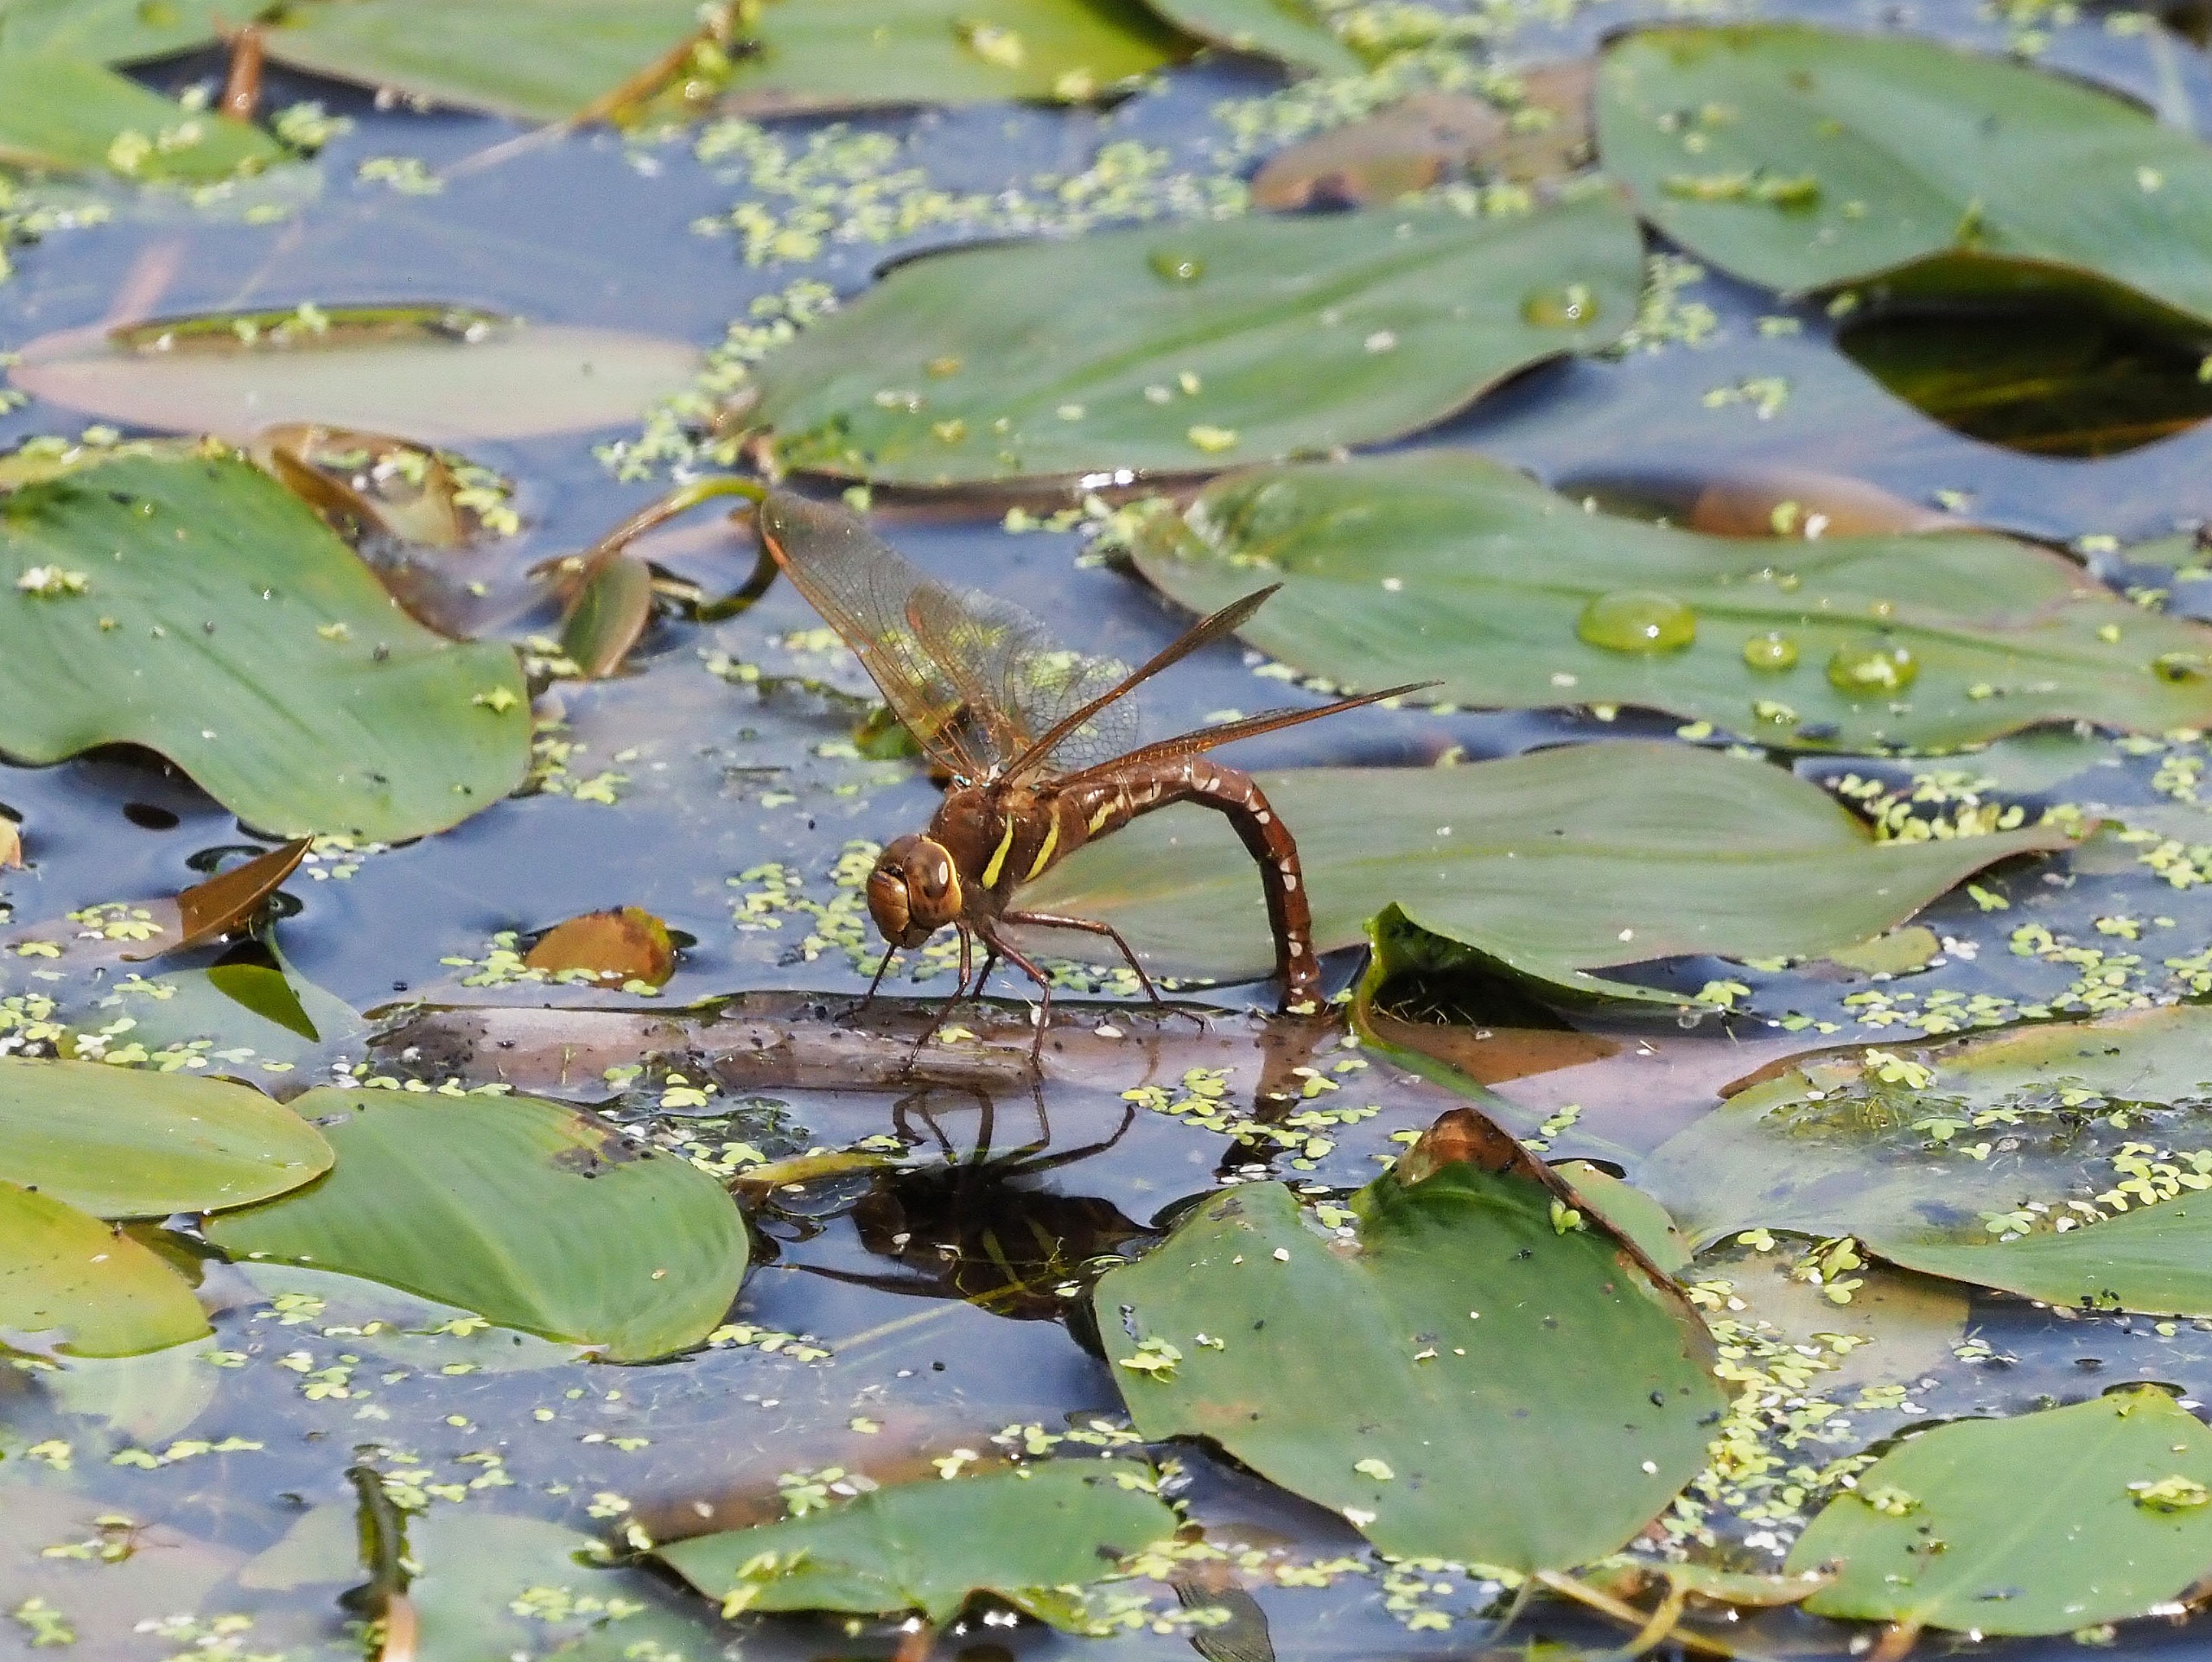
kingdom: Animalia
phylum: Arthropoda
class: Insecta
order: Odonata
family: Aeshnidae
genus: Aeshna
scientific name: Aeshna grandis
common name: Brun mosaikguldsmed
